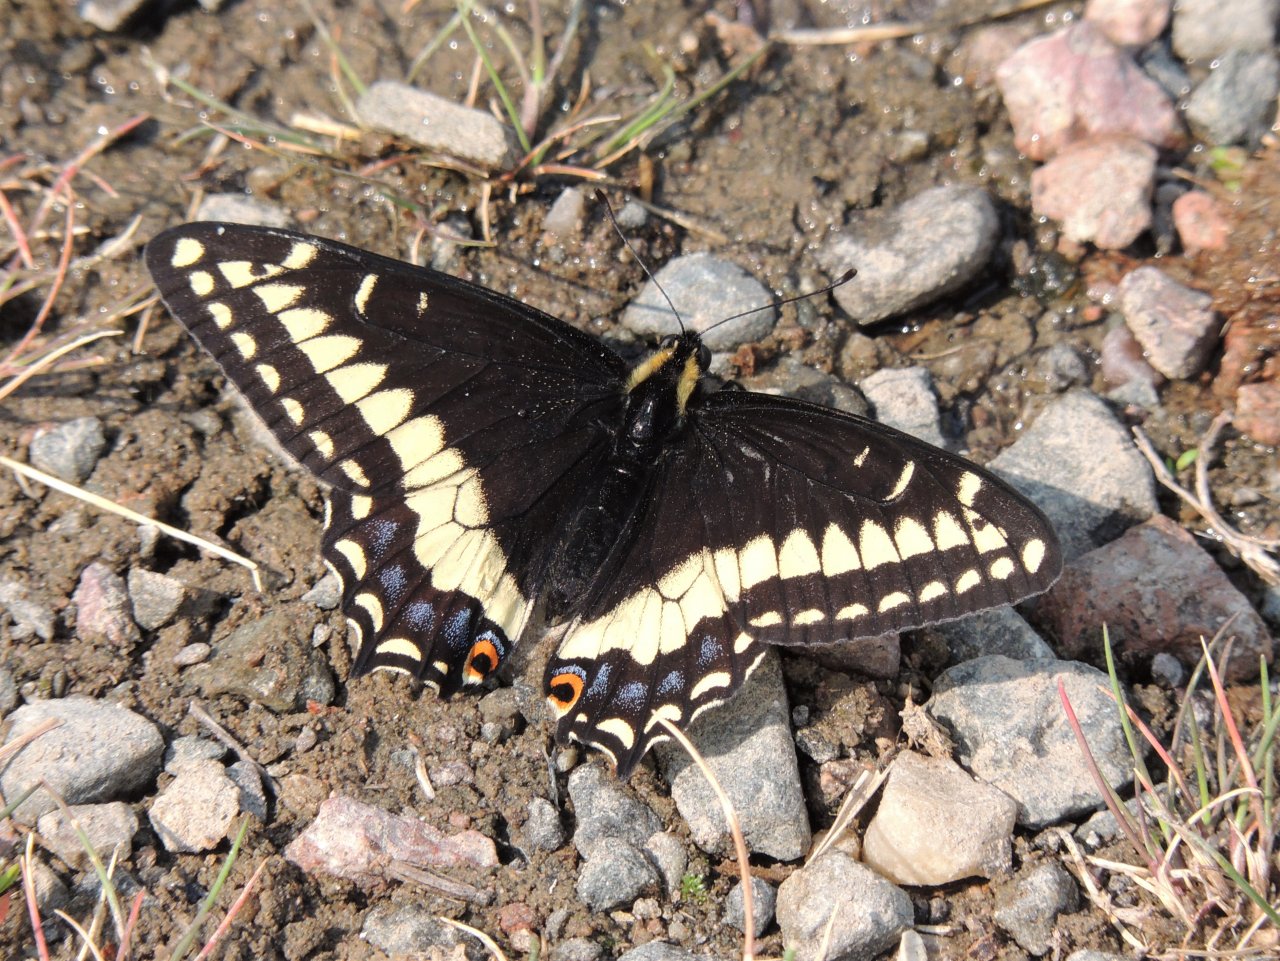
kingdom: Animalia
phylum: Arthropoda
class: Insecta
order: Lepidoptera
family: Papilionidae
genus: Papilio
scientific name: Papilio indra
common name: Indra Swallowtail
